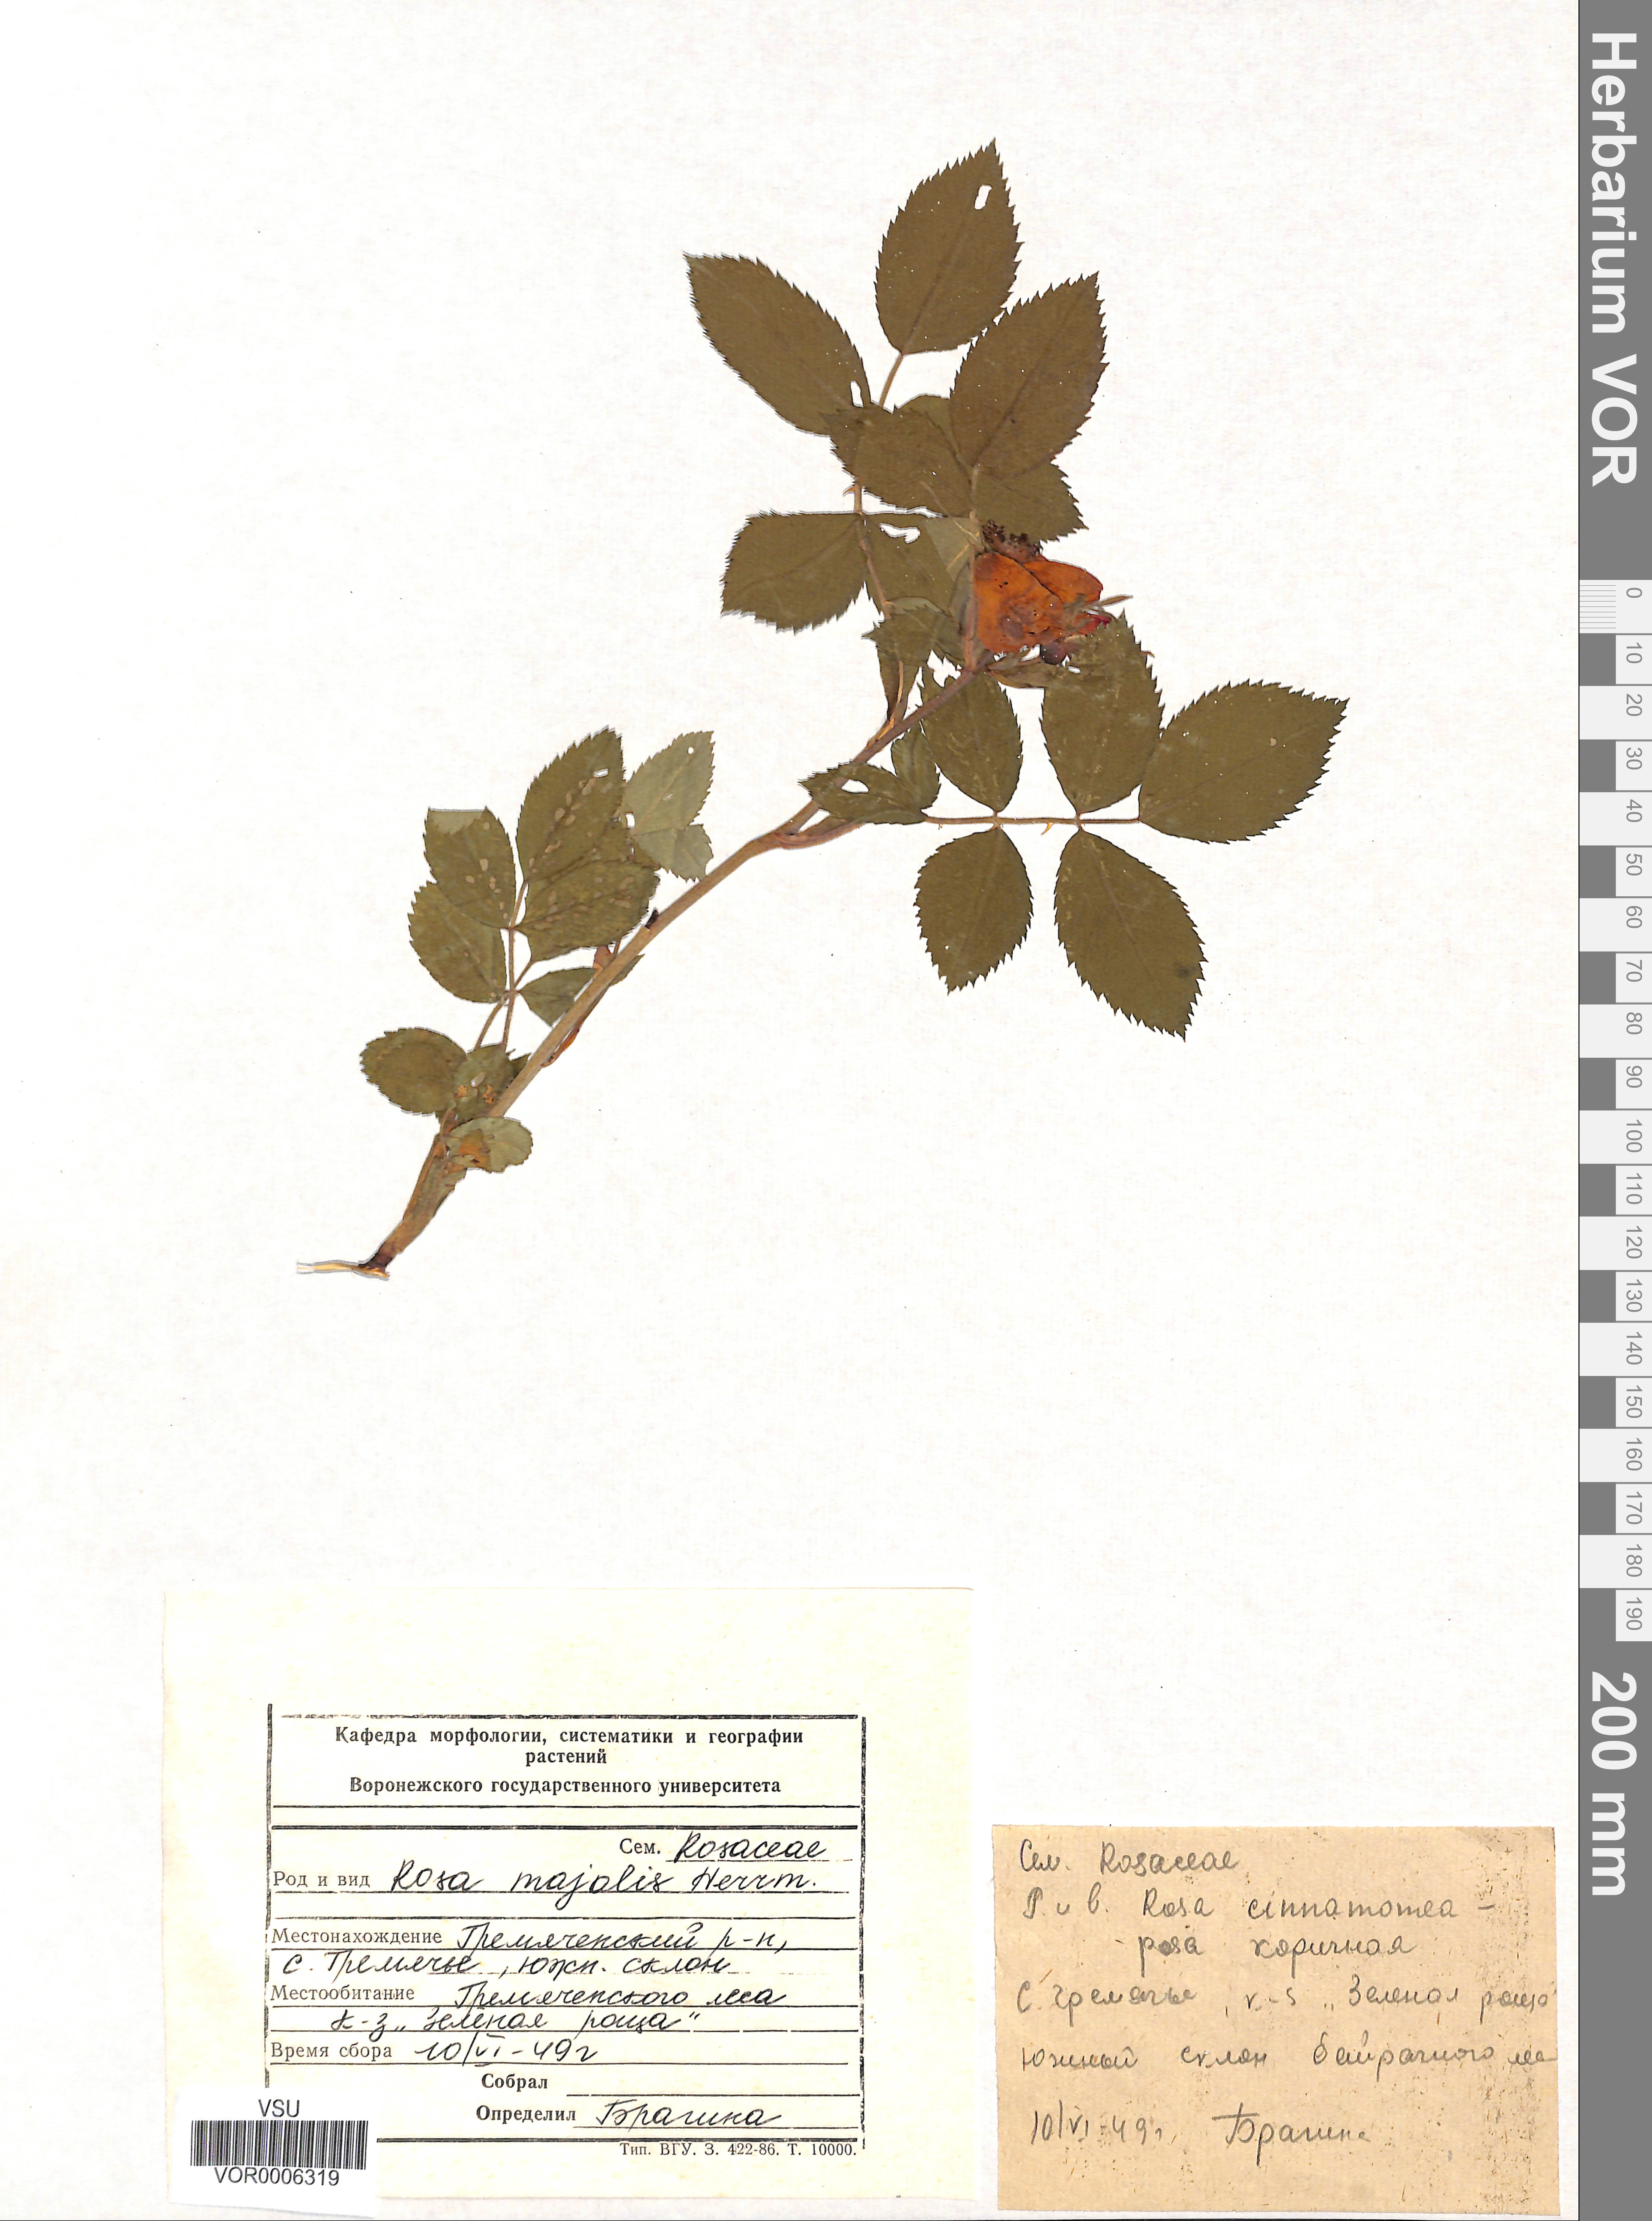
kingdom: Plantae
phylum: Tracheophyta
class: Magnoliopsida
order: Rosales
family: Rosaceae
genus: Rosa
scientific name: Rosa majalis
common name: Cinnamon rose
